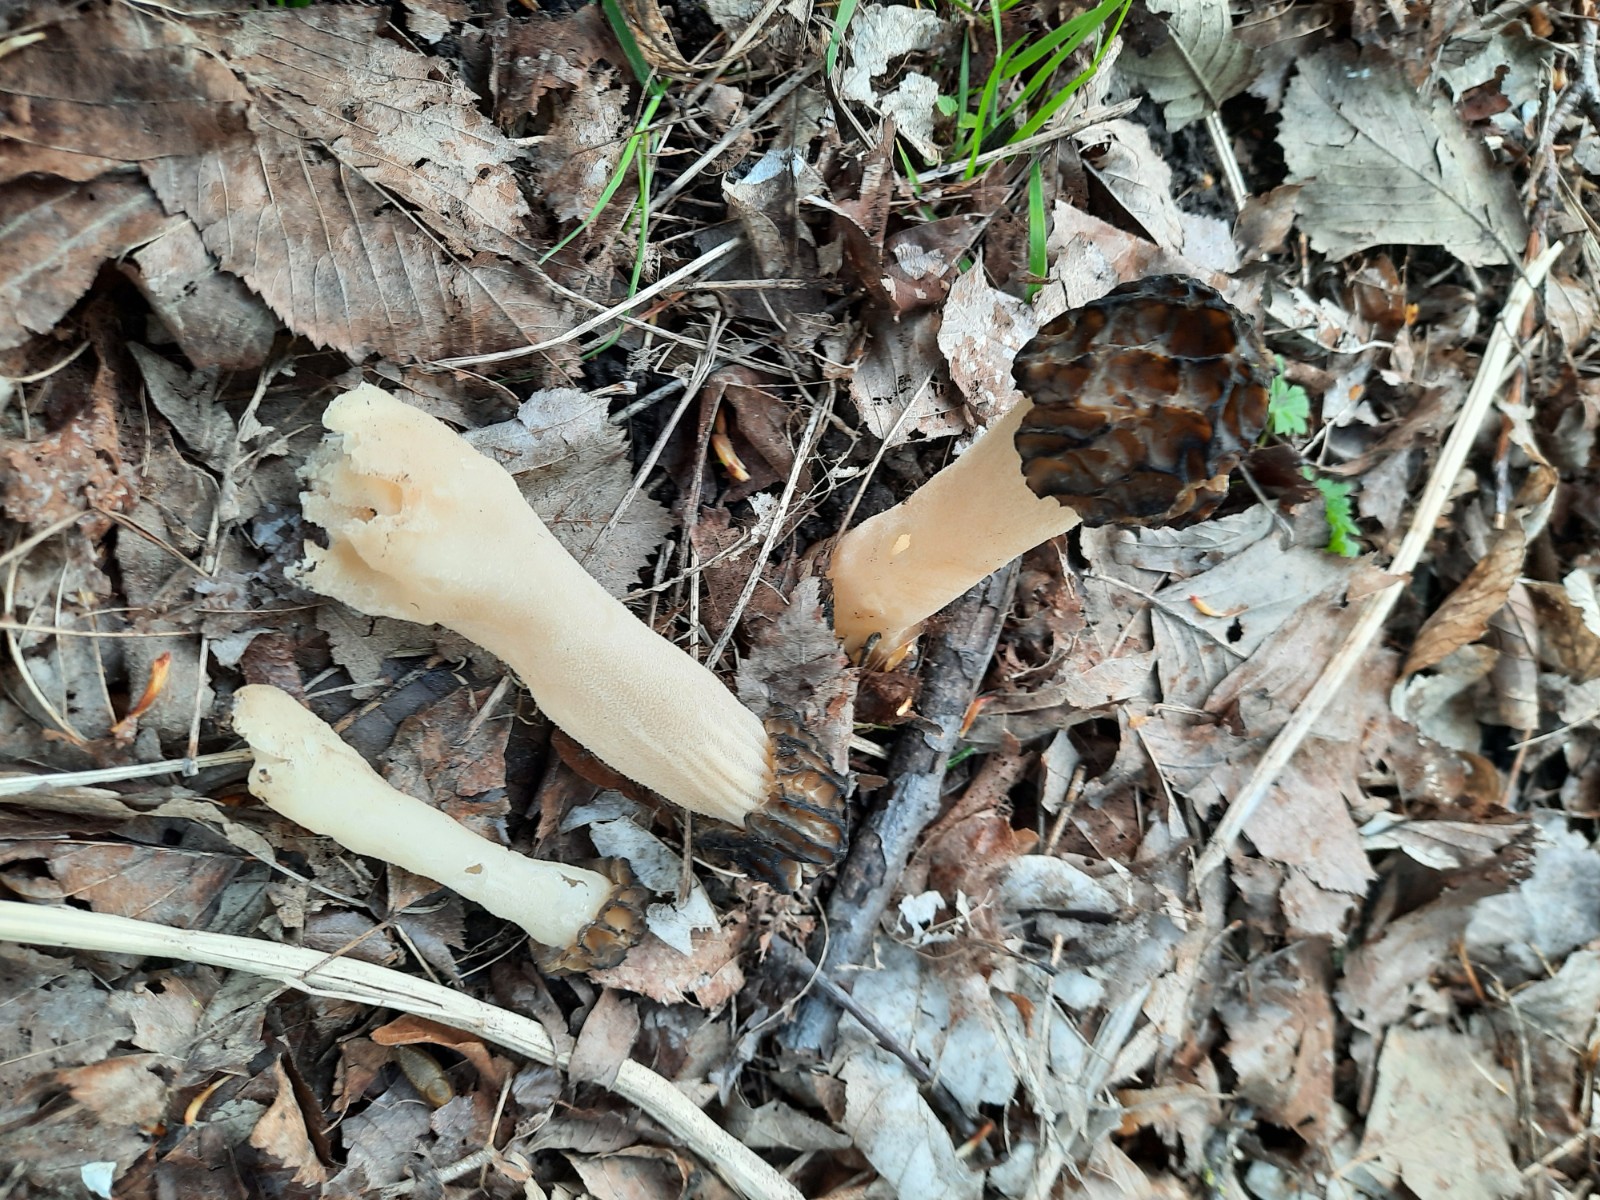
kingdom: Fungi
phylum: Ascomycota
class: Pezizomycetes
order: Pezizales
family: Morchellaceae
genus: Morchella
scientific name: Morchella semilibera
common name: hætte-morkel
